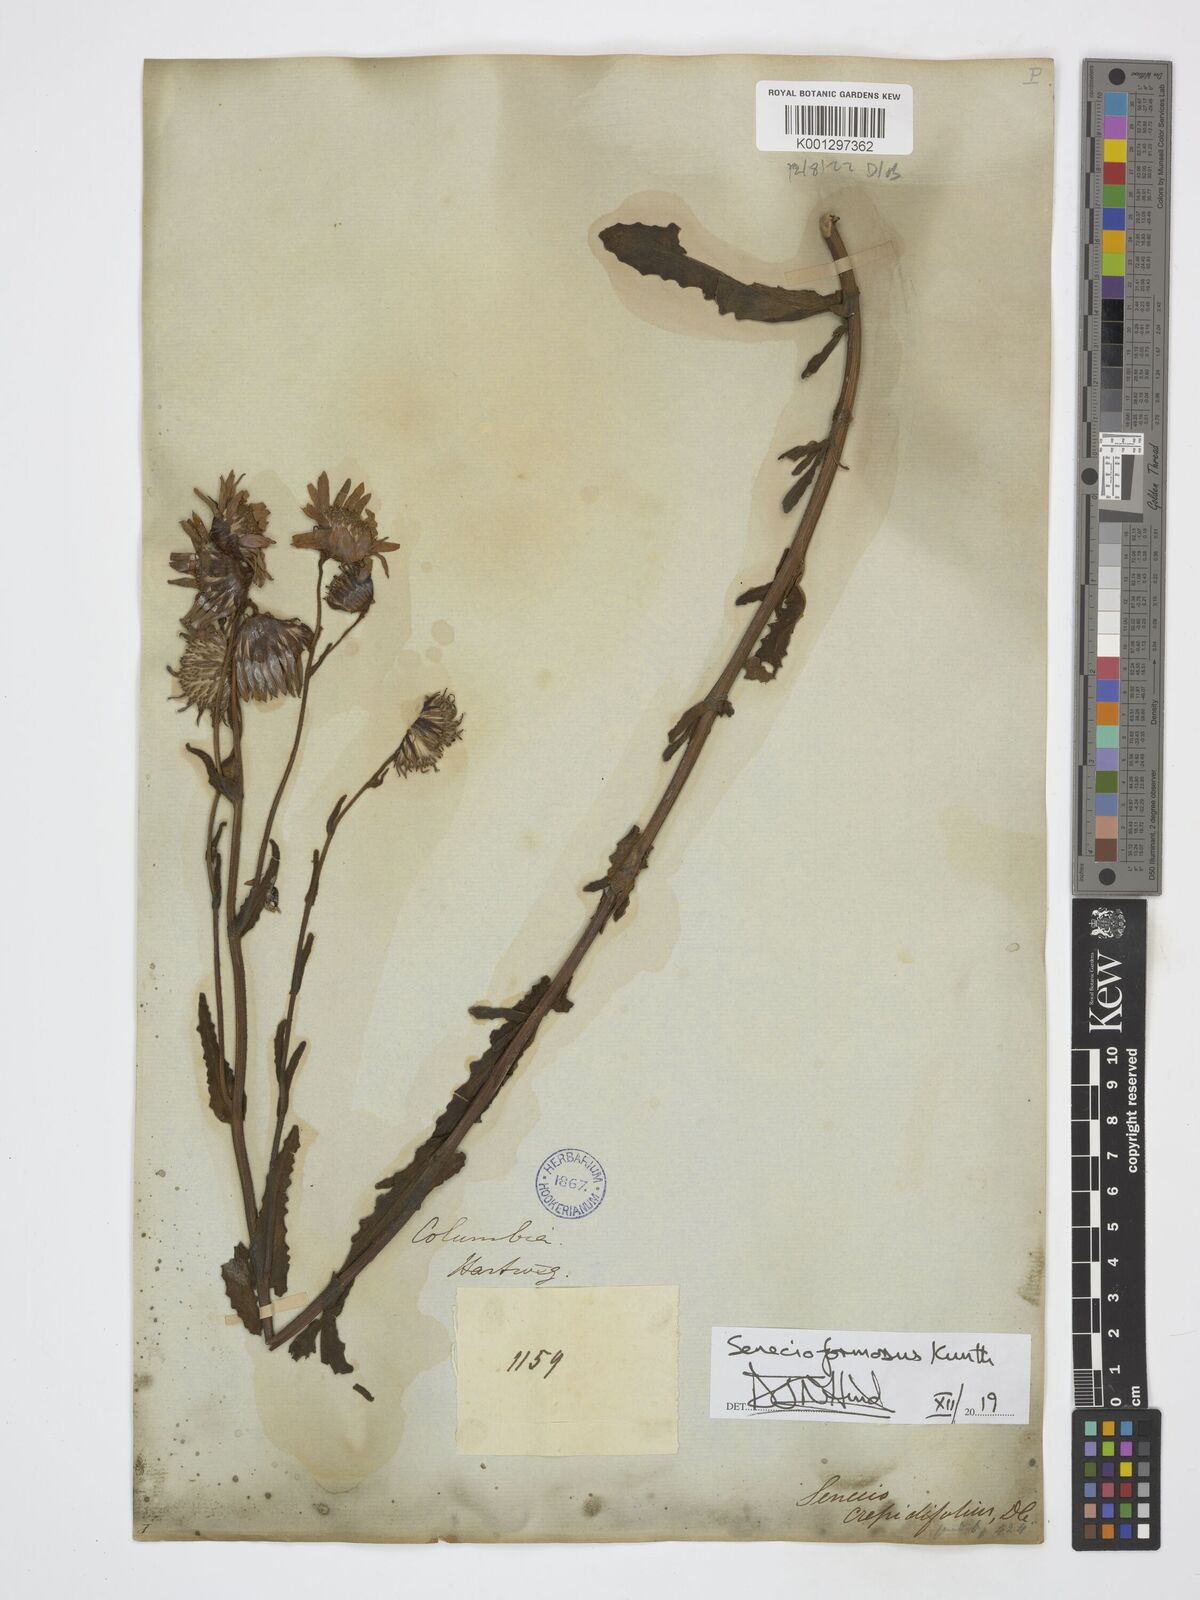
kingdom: Plantae
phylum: Tracheophyta
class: Magnoliopsida
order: Asterales
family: Asteraceae
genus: Senecio
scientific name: Senecio formosus
